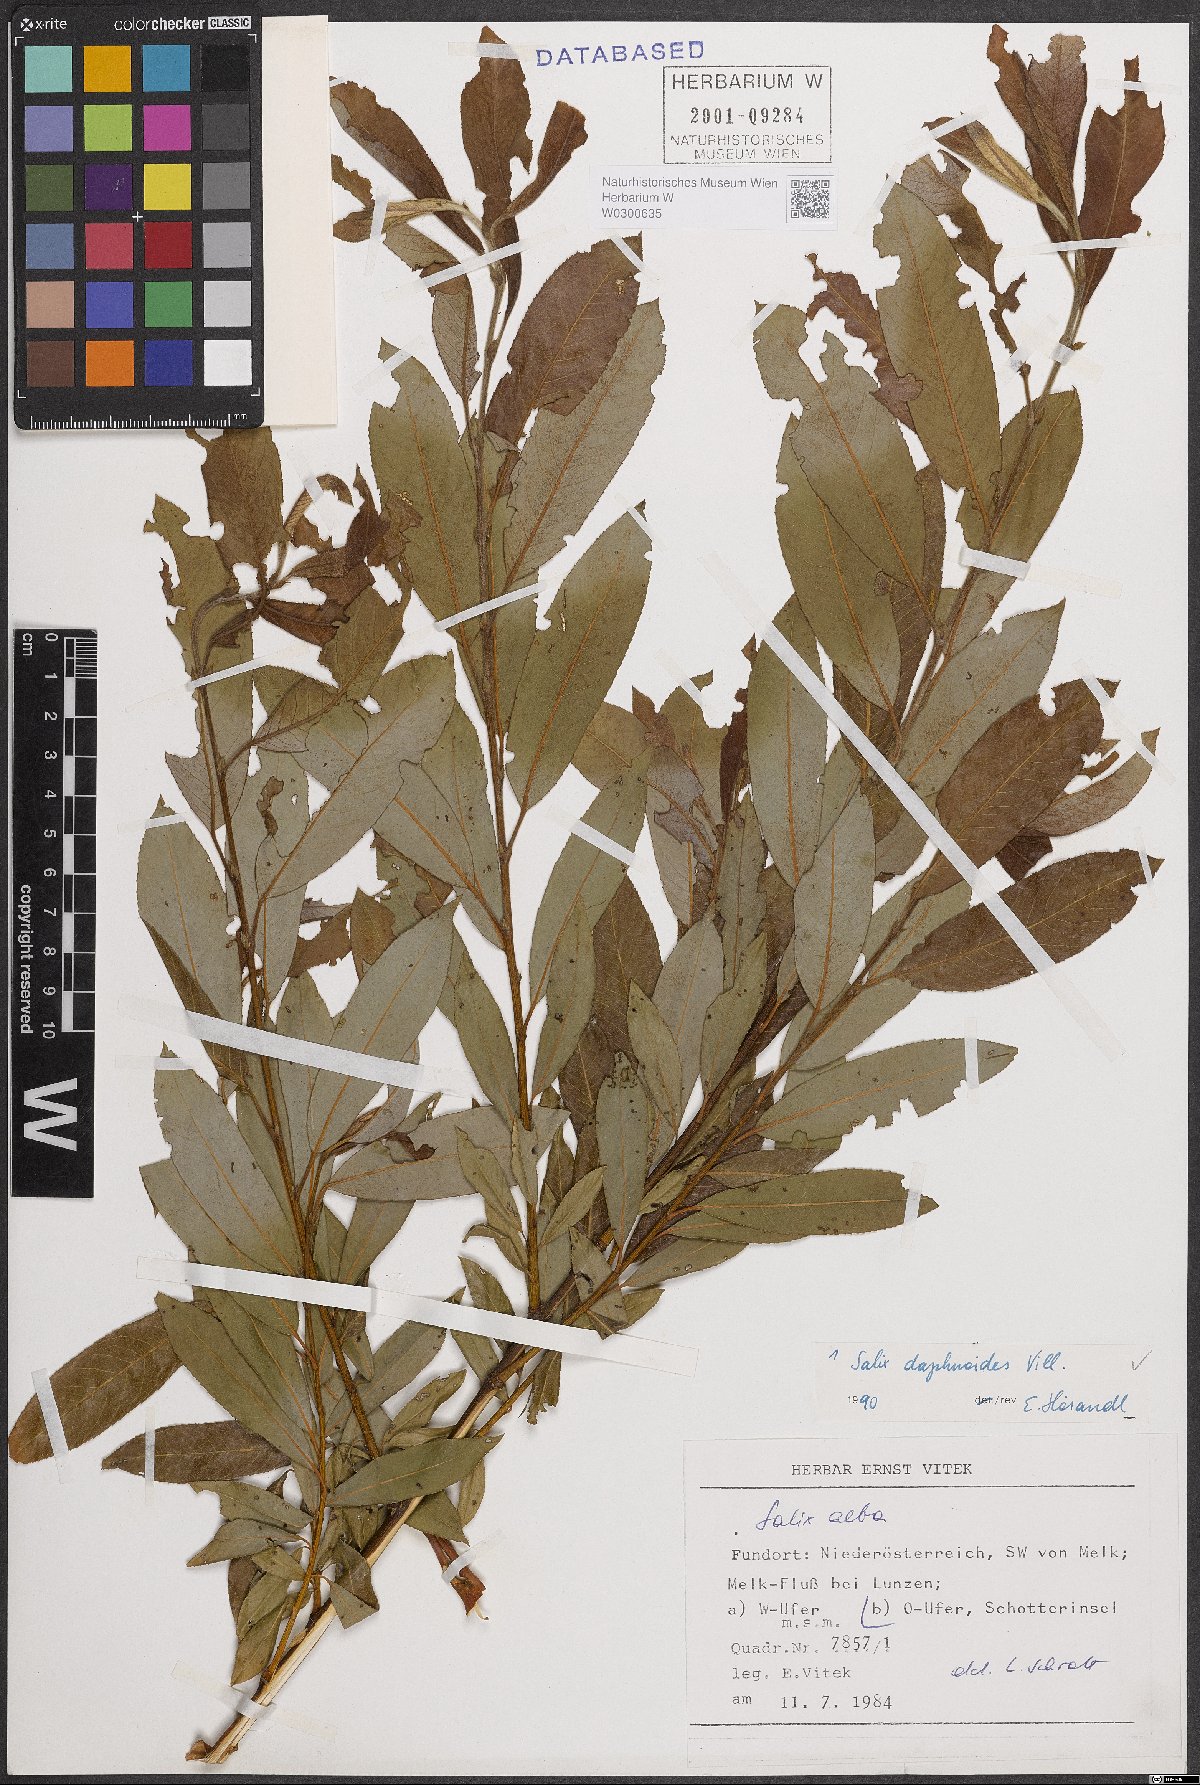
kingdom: Plantae
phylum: Tracheophyta
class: Magnoliopsida
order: Malpighiales
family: Salicaceae
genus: Salix
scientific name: Salix daphnoides
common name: European violet-willow
